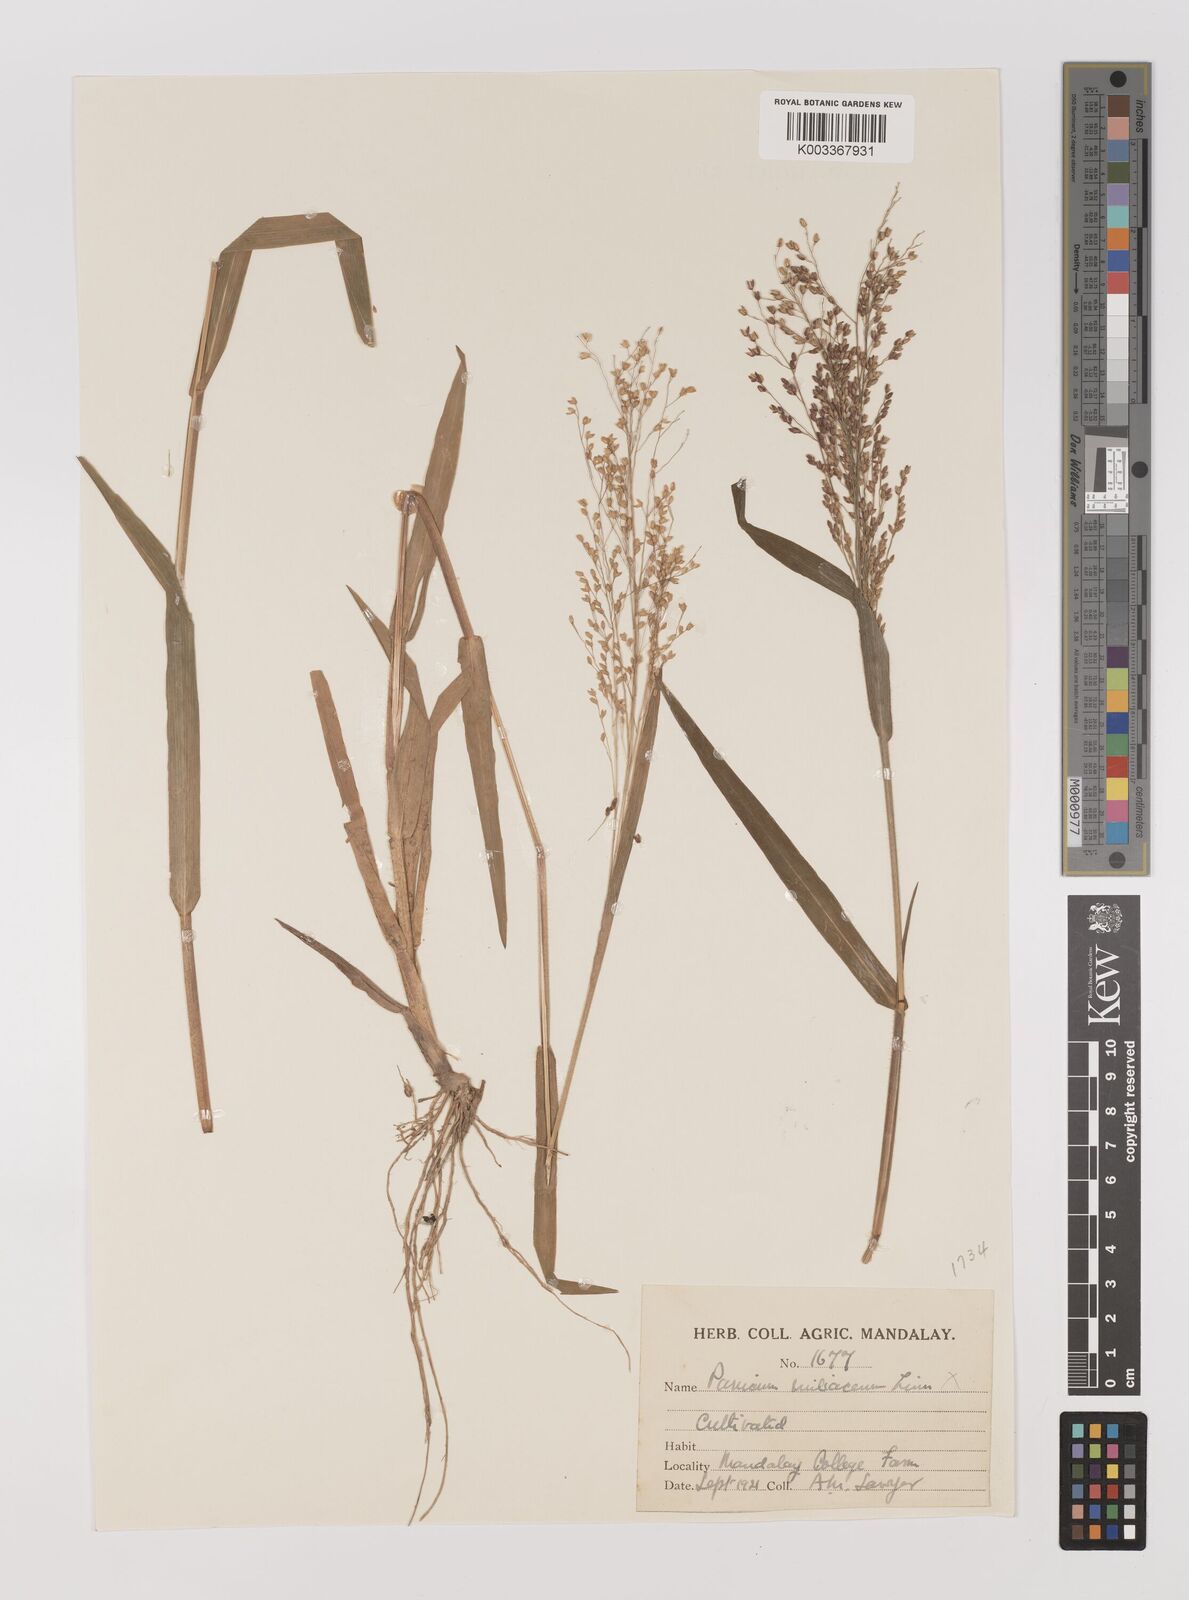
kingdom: Plantae
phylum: Tracheophyta
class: Liliopsida
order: Poales
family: Poaceae
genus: Panicum
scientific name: Panicum miliaceum
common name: Common millet
